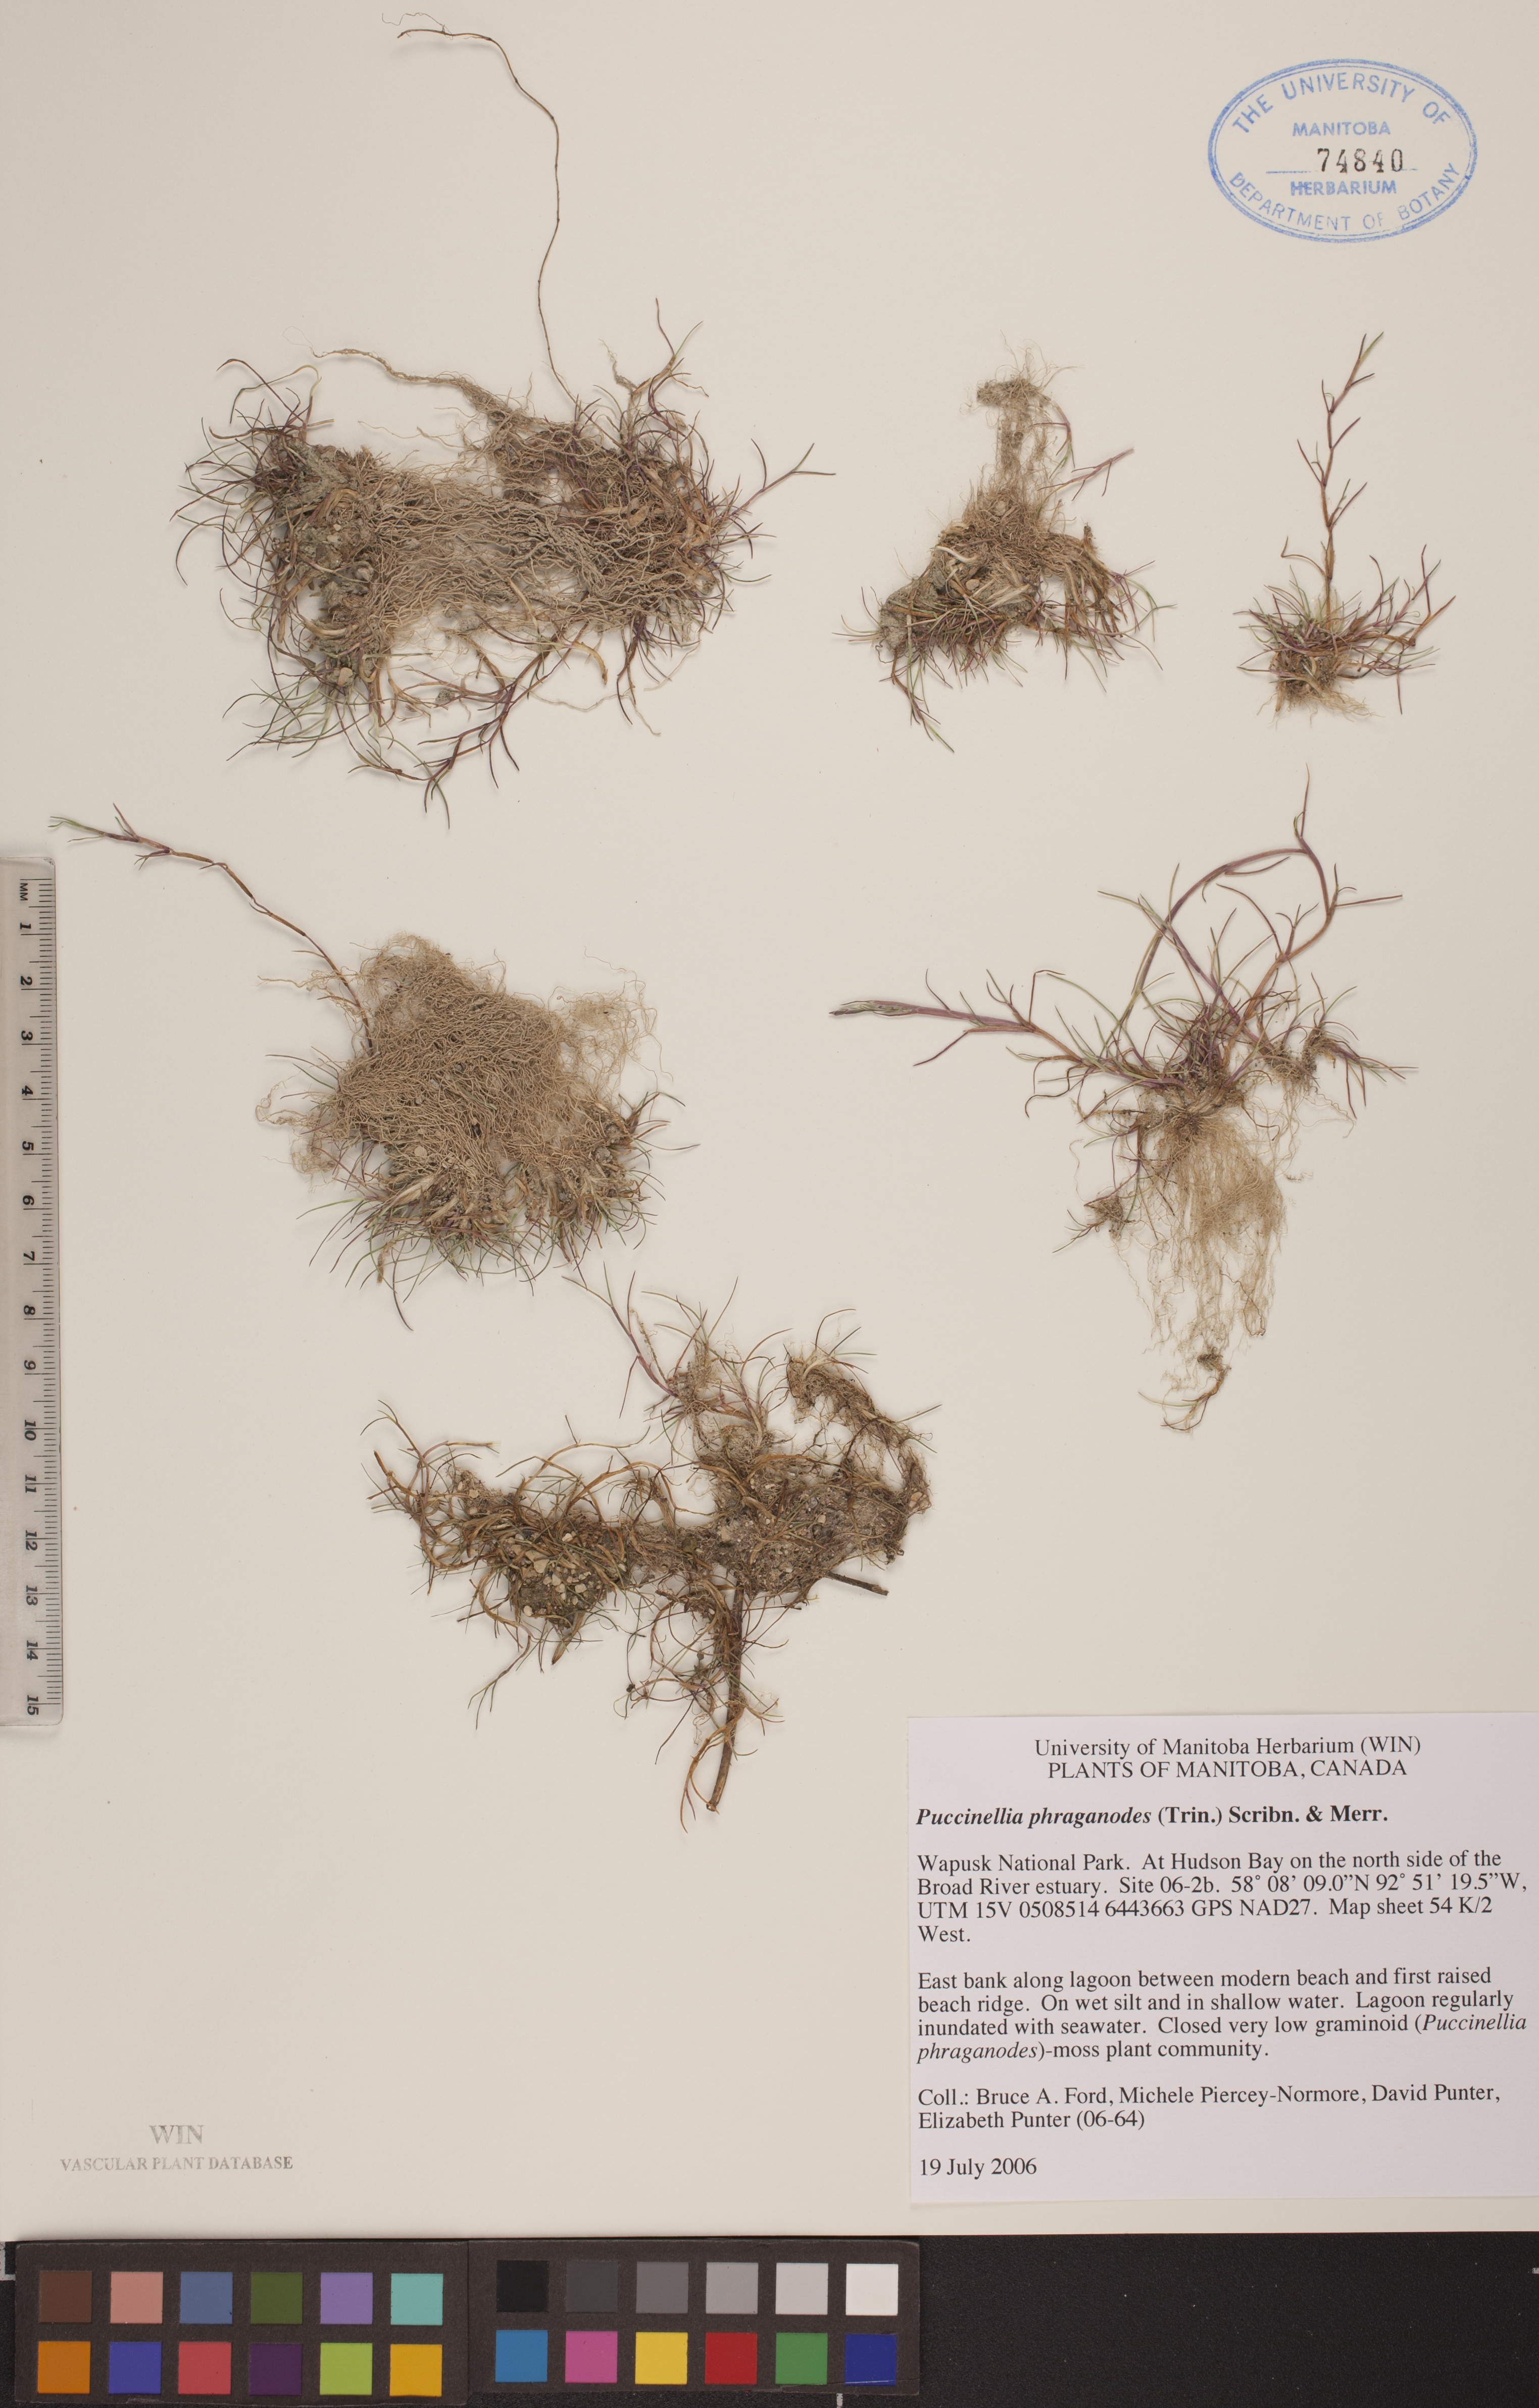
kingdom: Plantae
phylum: Tracheophyta
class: Liliopsida
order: Poales
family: Poaceae
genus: Puccinellia
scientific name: Puccinellia phryganodes
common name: Creeping alkaligrass
